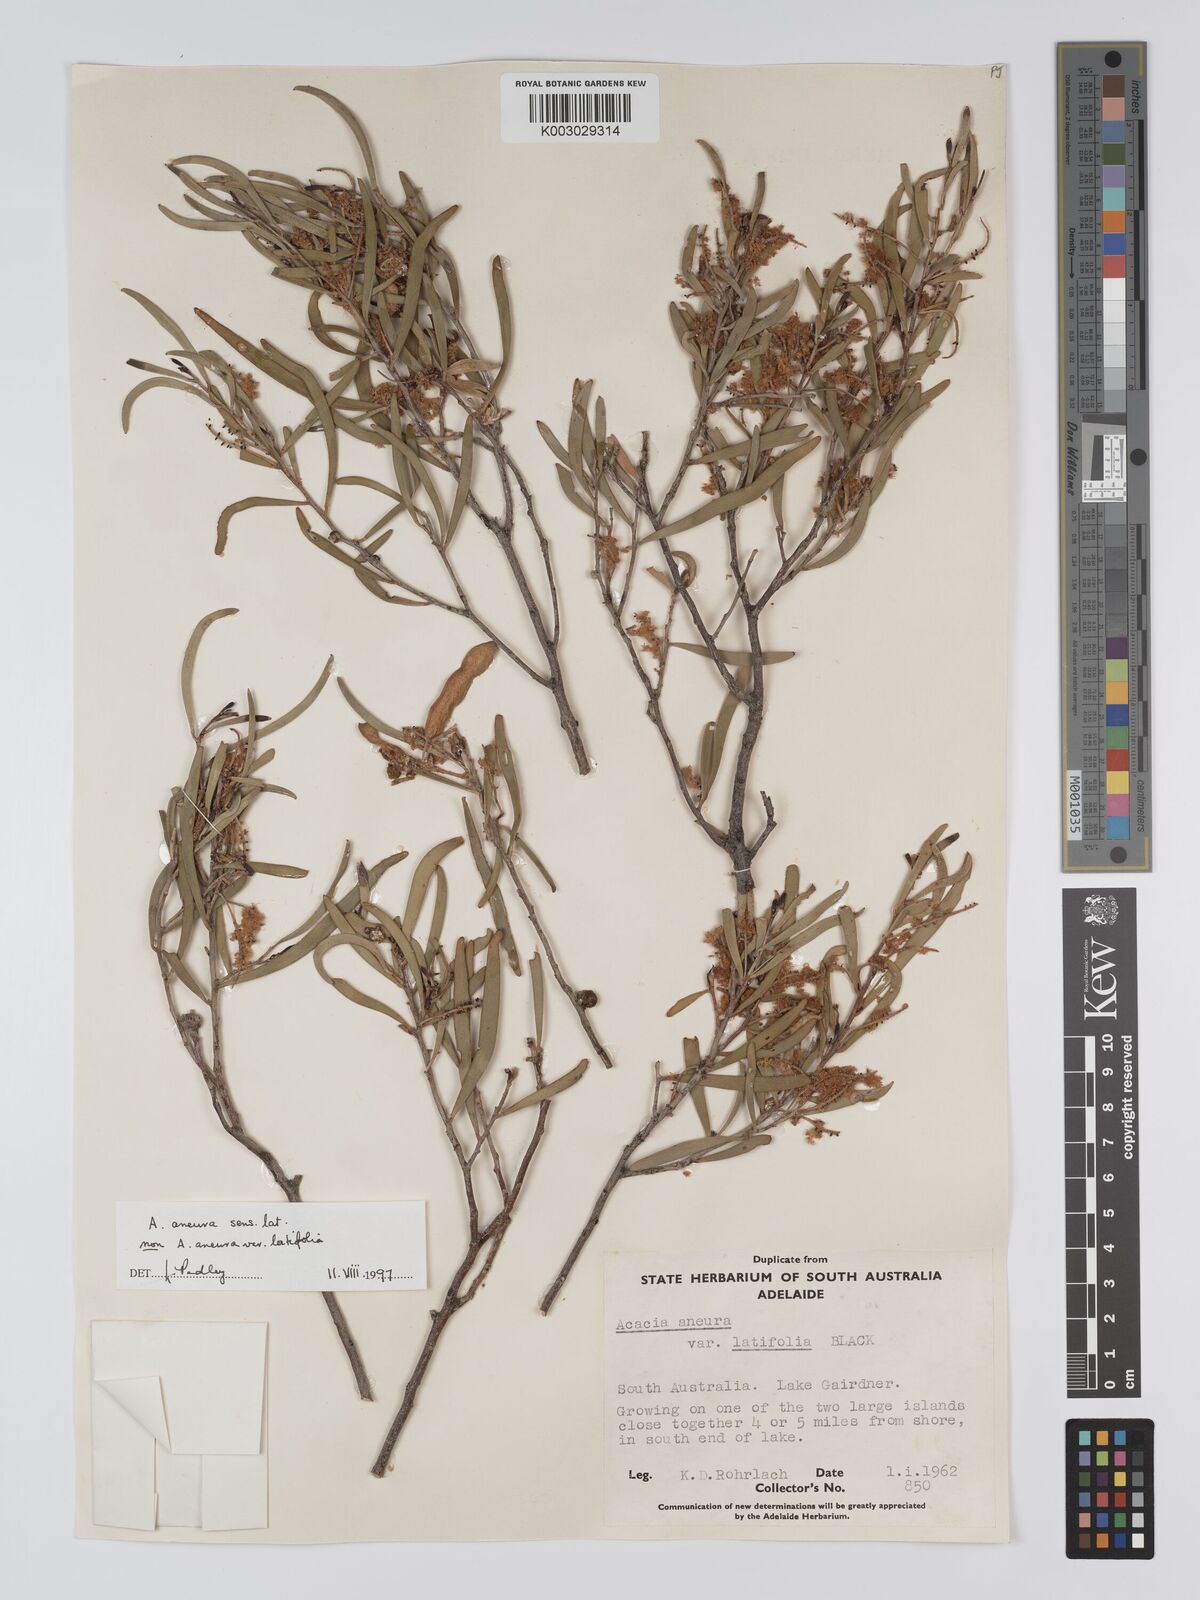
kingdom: Plantae
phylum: Tracheophyta
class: Magnoliopsida
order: Fabales
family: Fabaceae
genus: Acacia
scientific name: Acacia aneura
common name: Mulga
